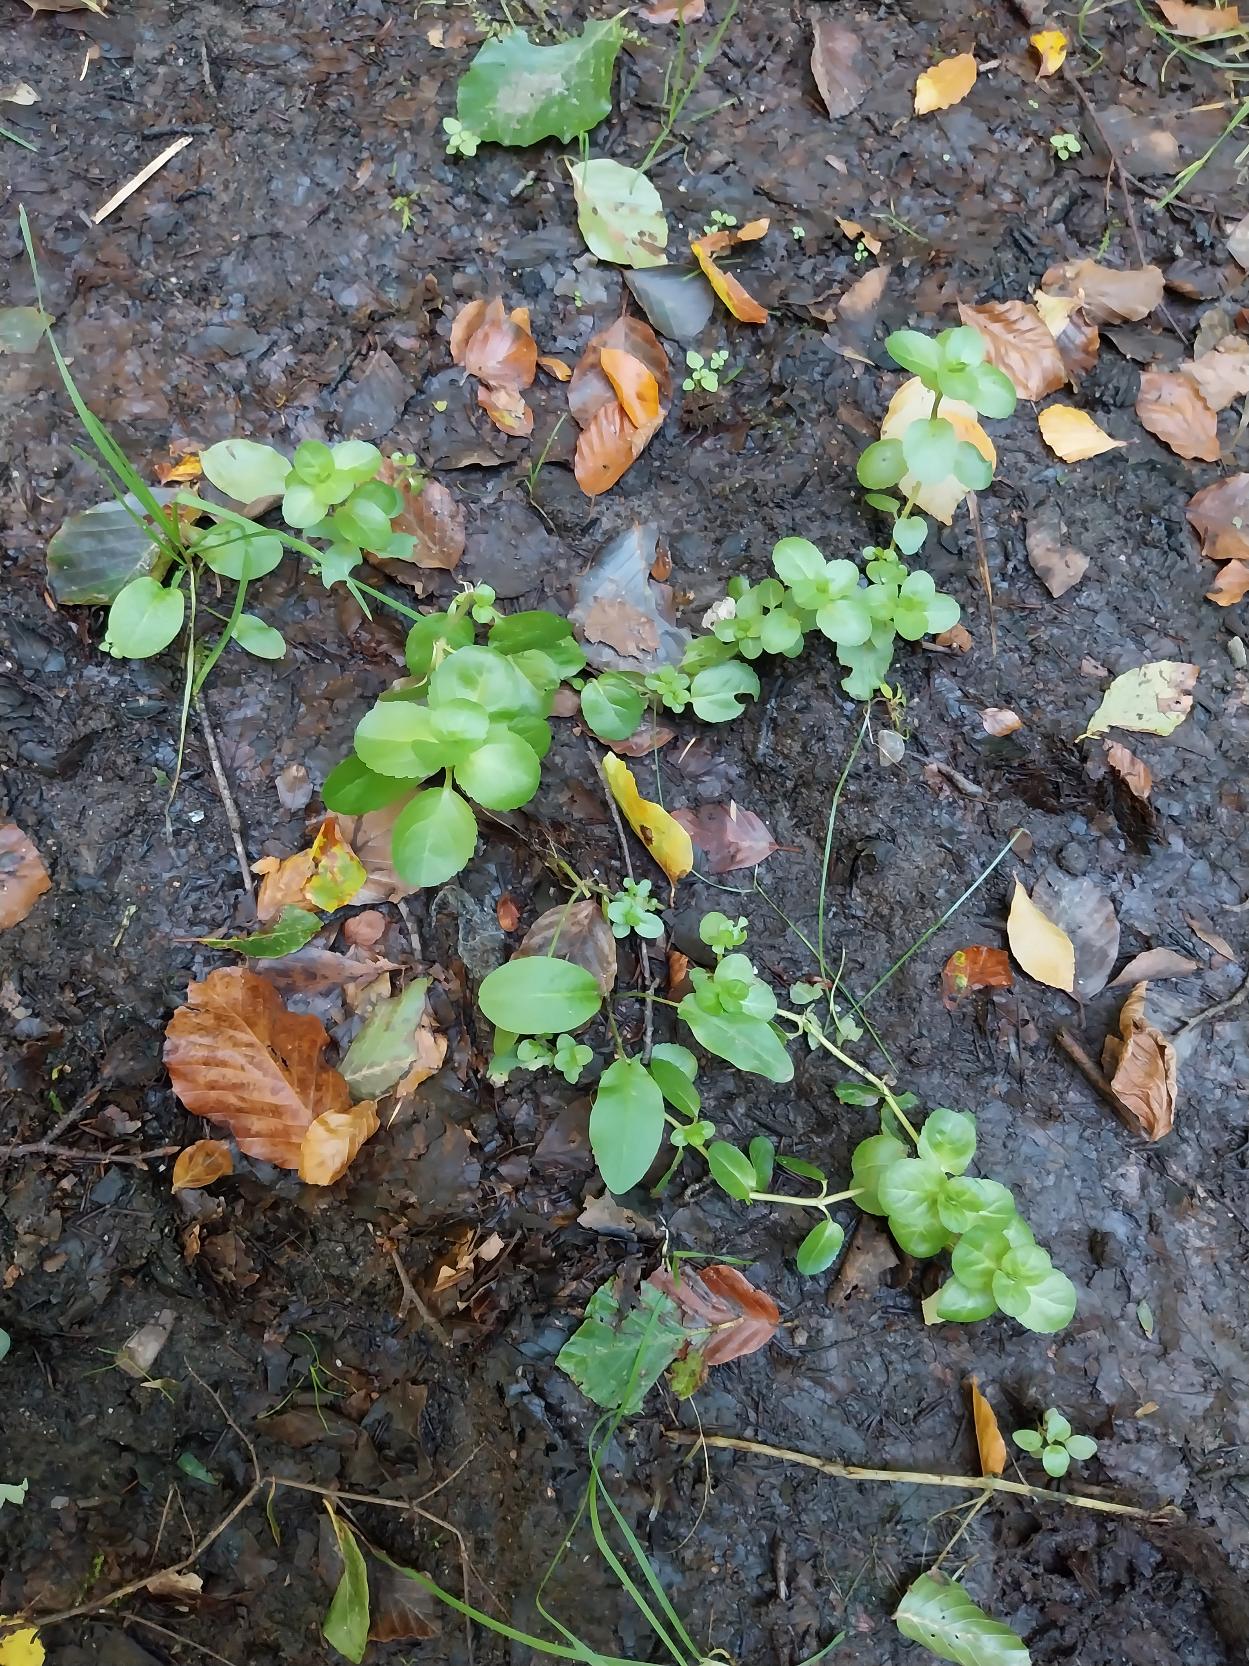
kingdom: Plantae
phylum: Tracheophyta
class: Magnoliopsida
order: Lamiales
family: Plantaginaceae
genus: Veronica
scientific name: Veronica beccabunga
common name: Tykbladet ærenpris
